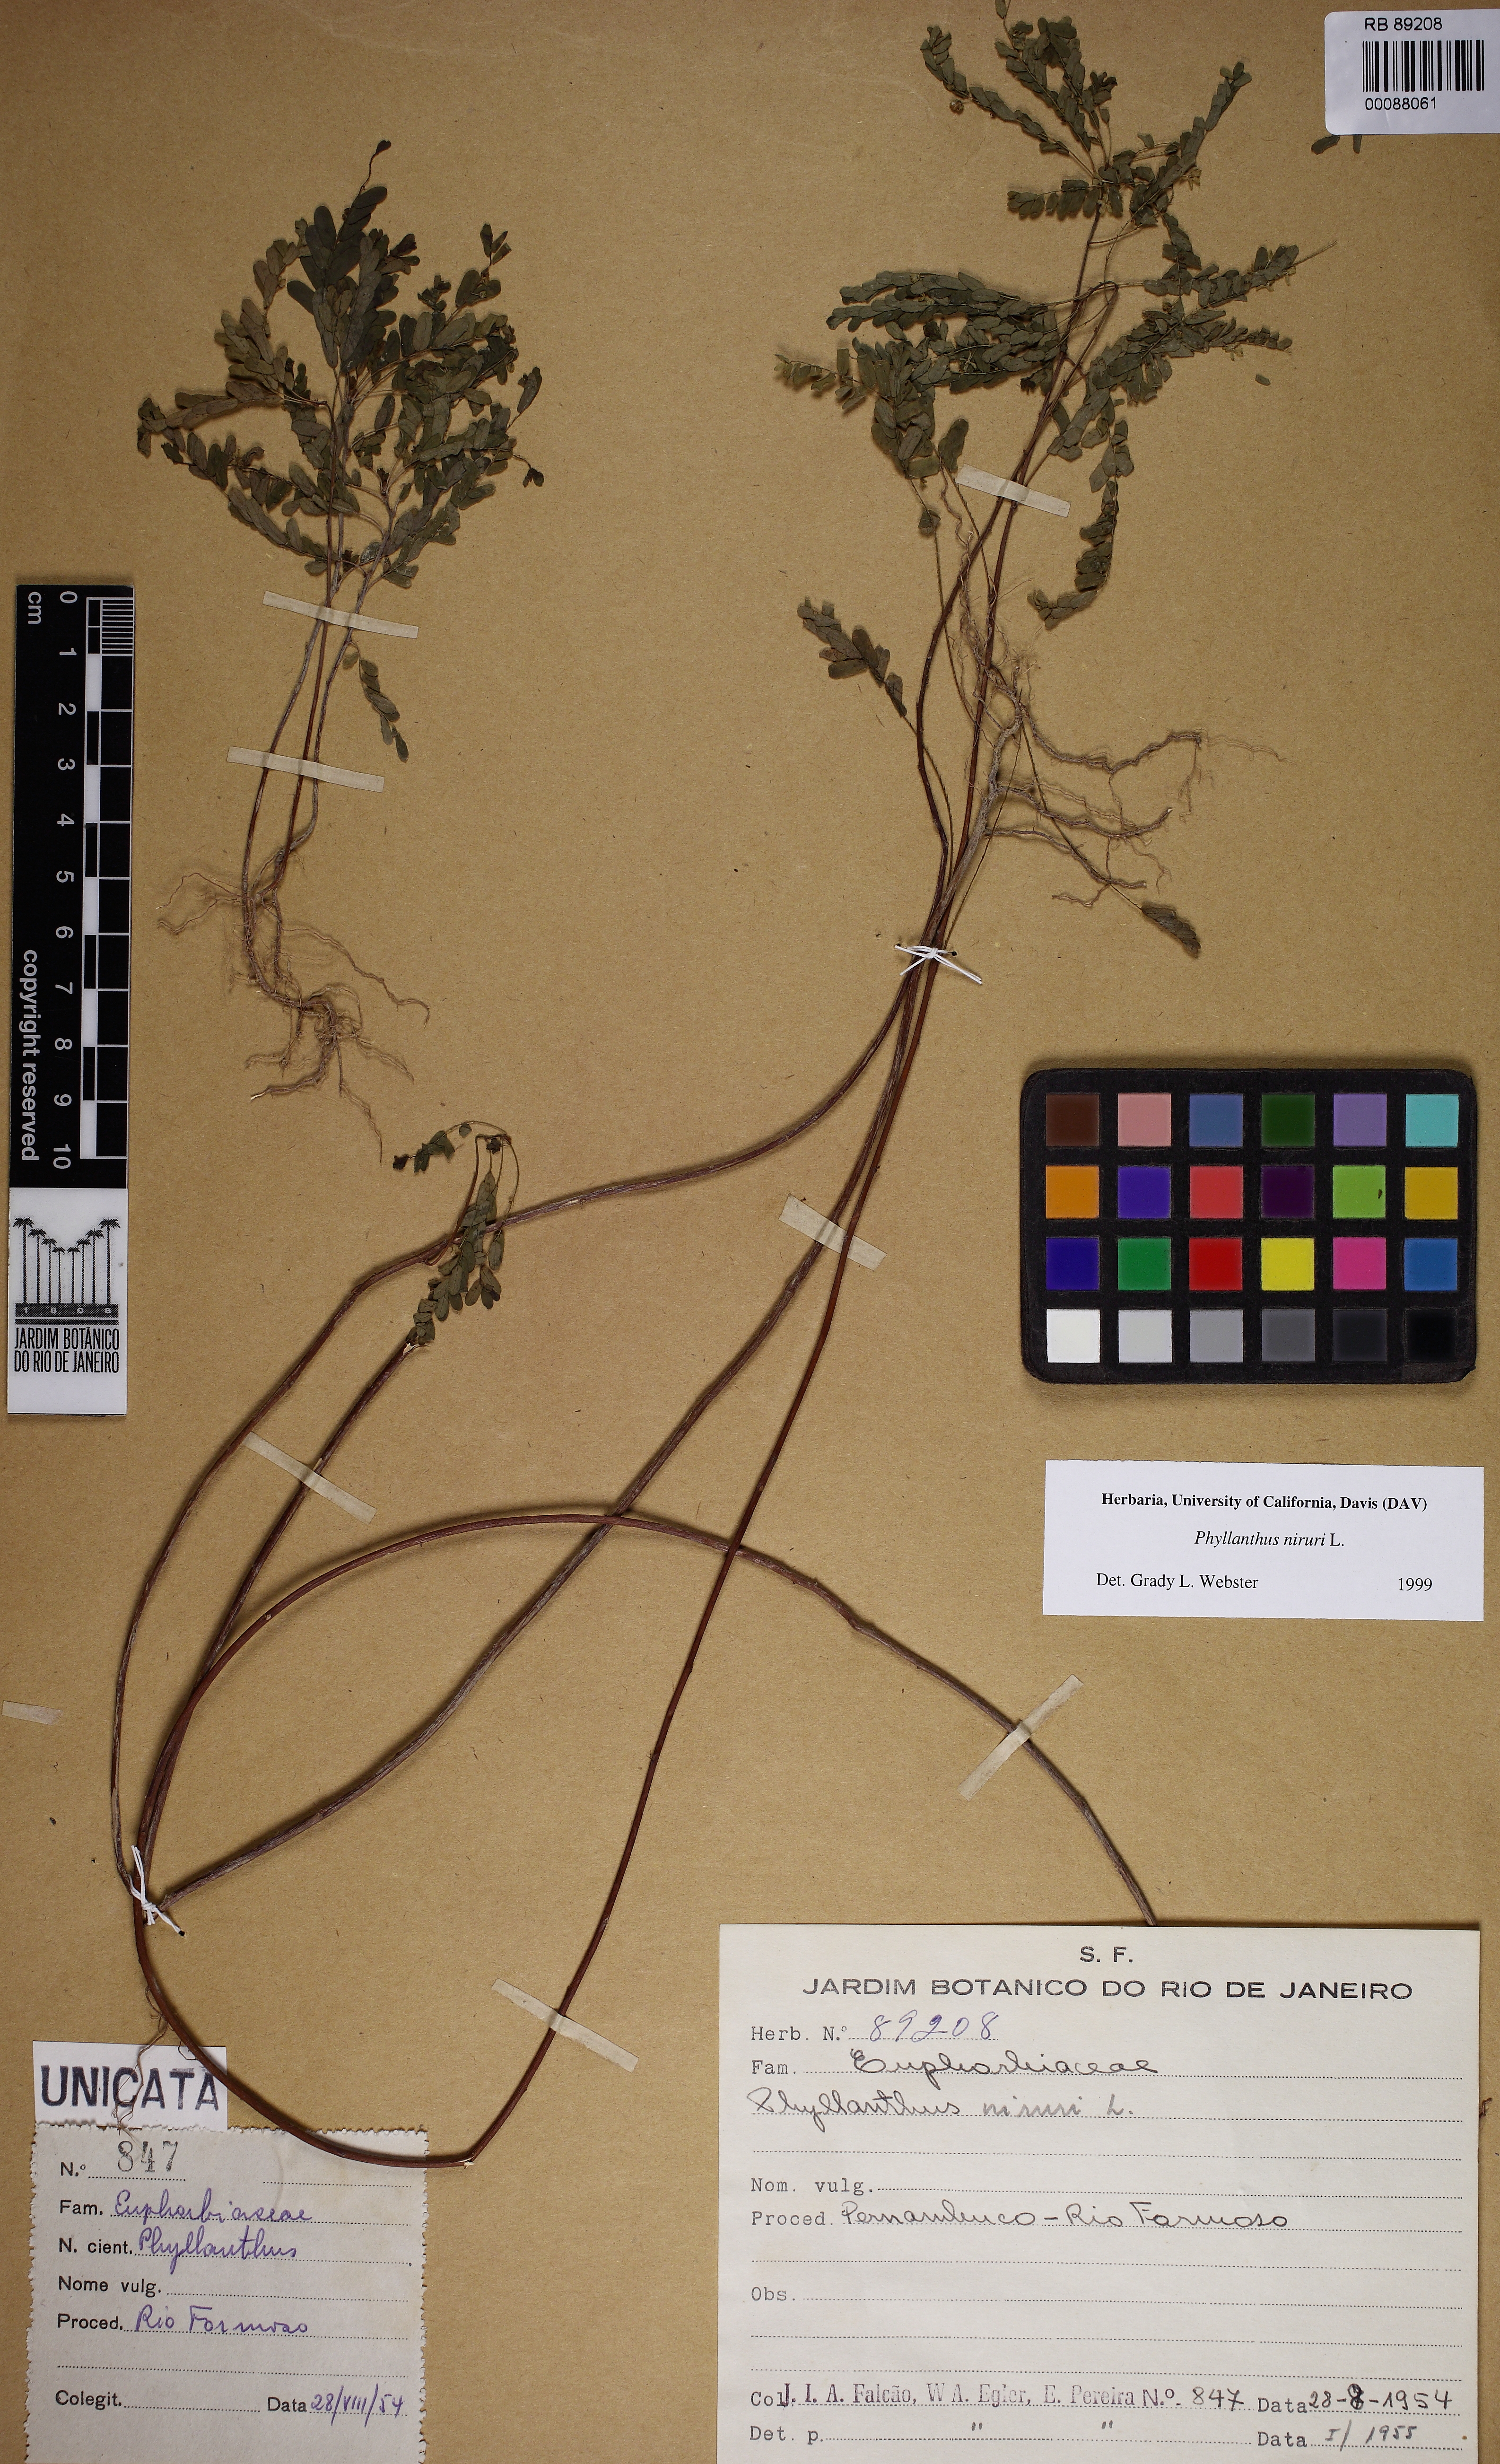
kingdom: Plantae
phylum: Tracheophyta
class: Magnoliopsida
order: Malpighiales
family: Phyllanthaceae
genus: Phyllanthus
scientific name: Phyllanthus niruri
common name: Niruri
